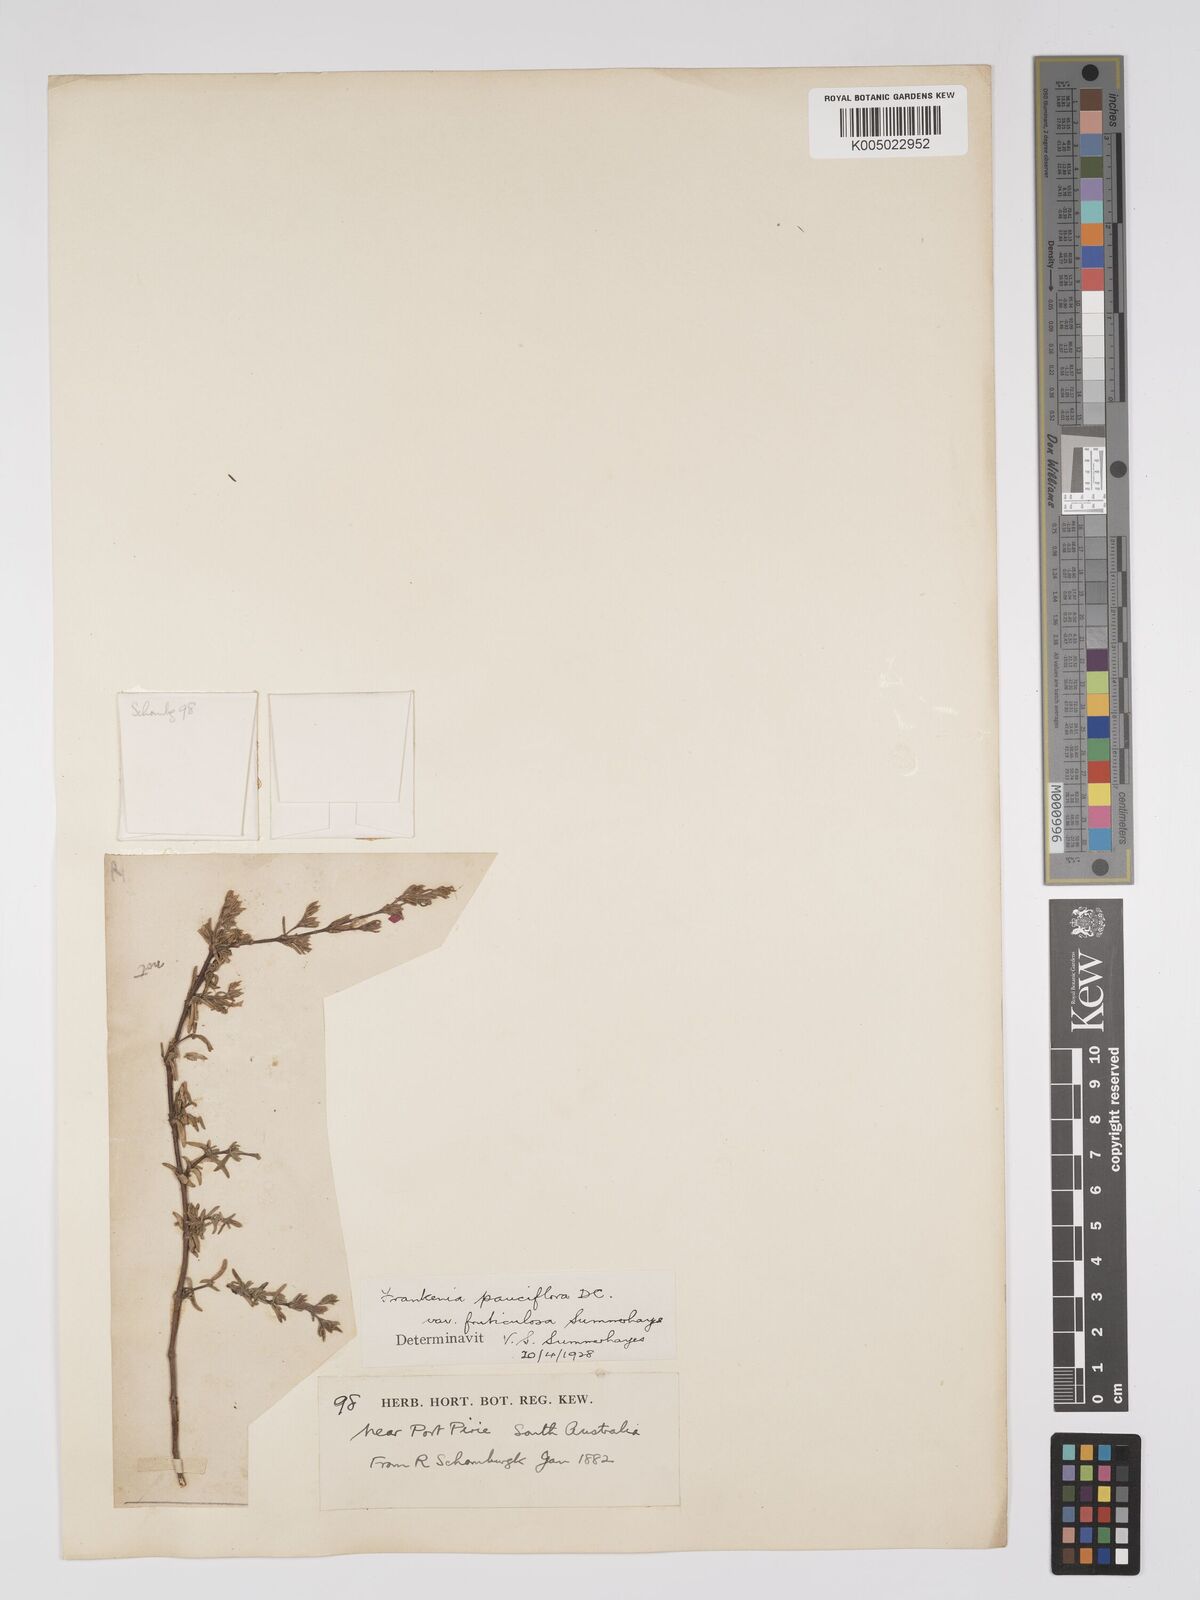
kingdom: Plantae
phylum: Tracheophyta
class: Magnoliopsida
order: Caryophyllales
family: Frankeniaceae
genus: Frankenia
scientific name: Frankenia pauciflora
